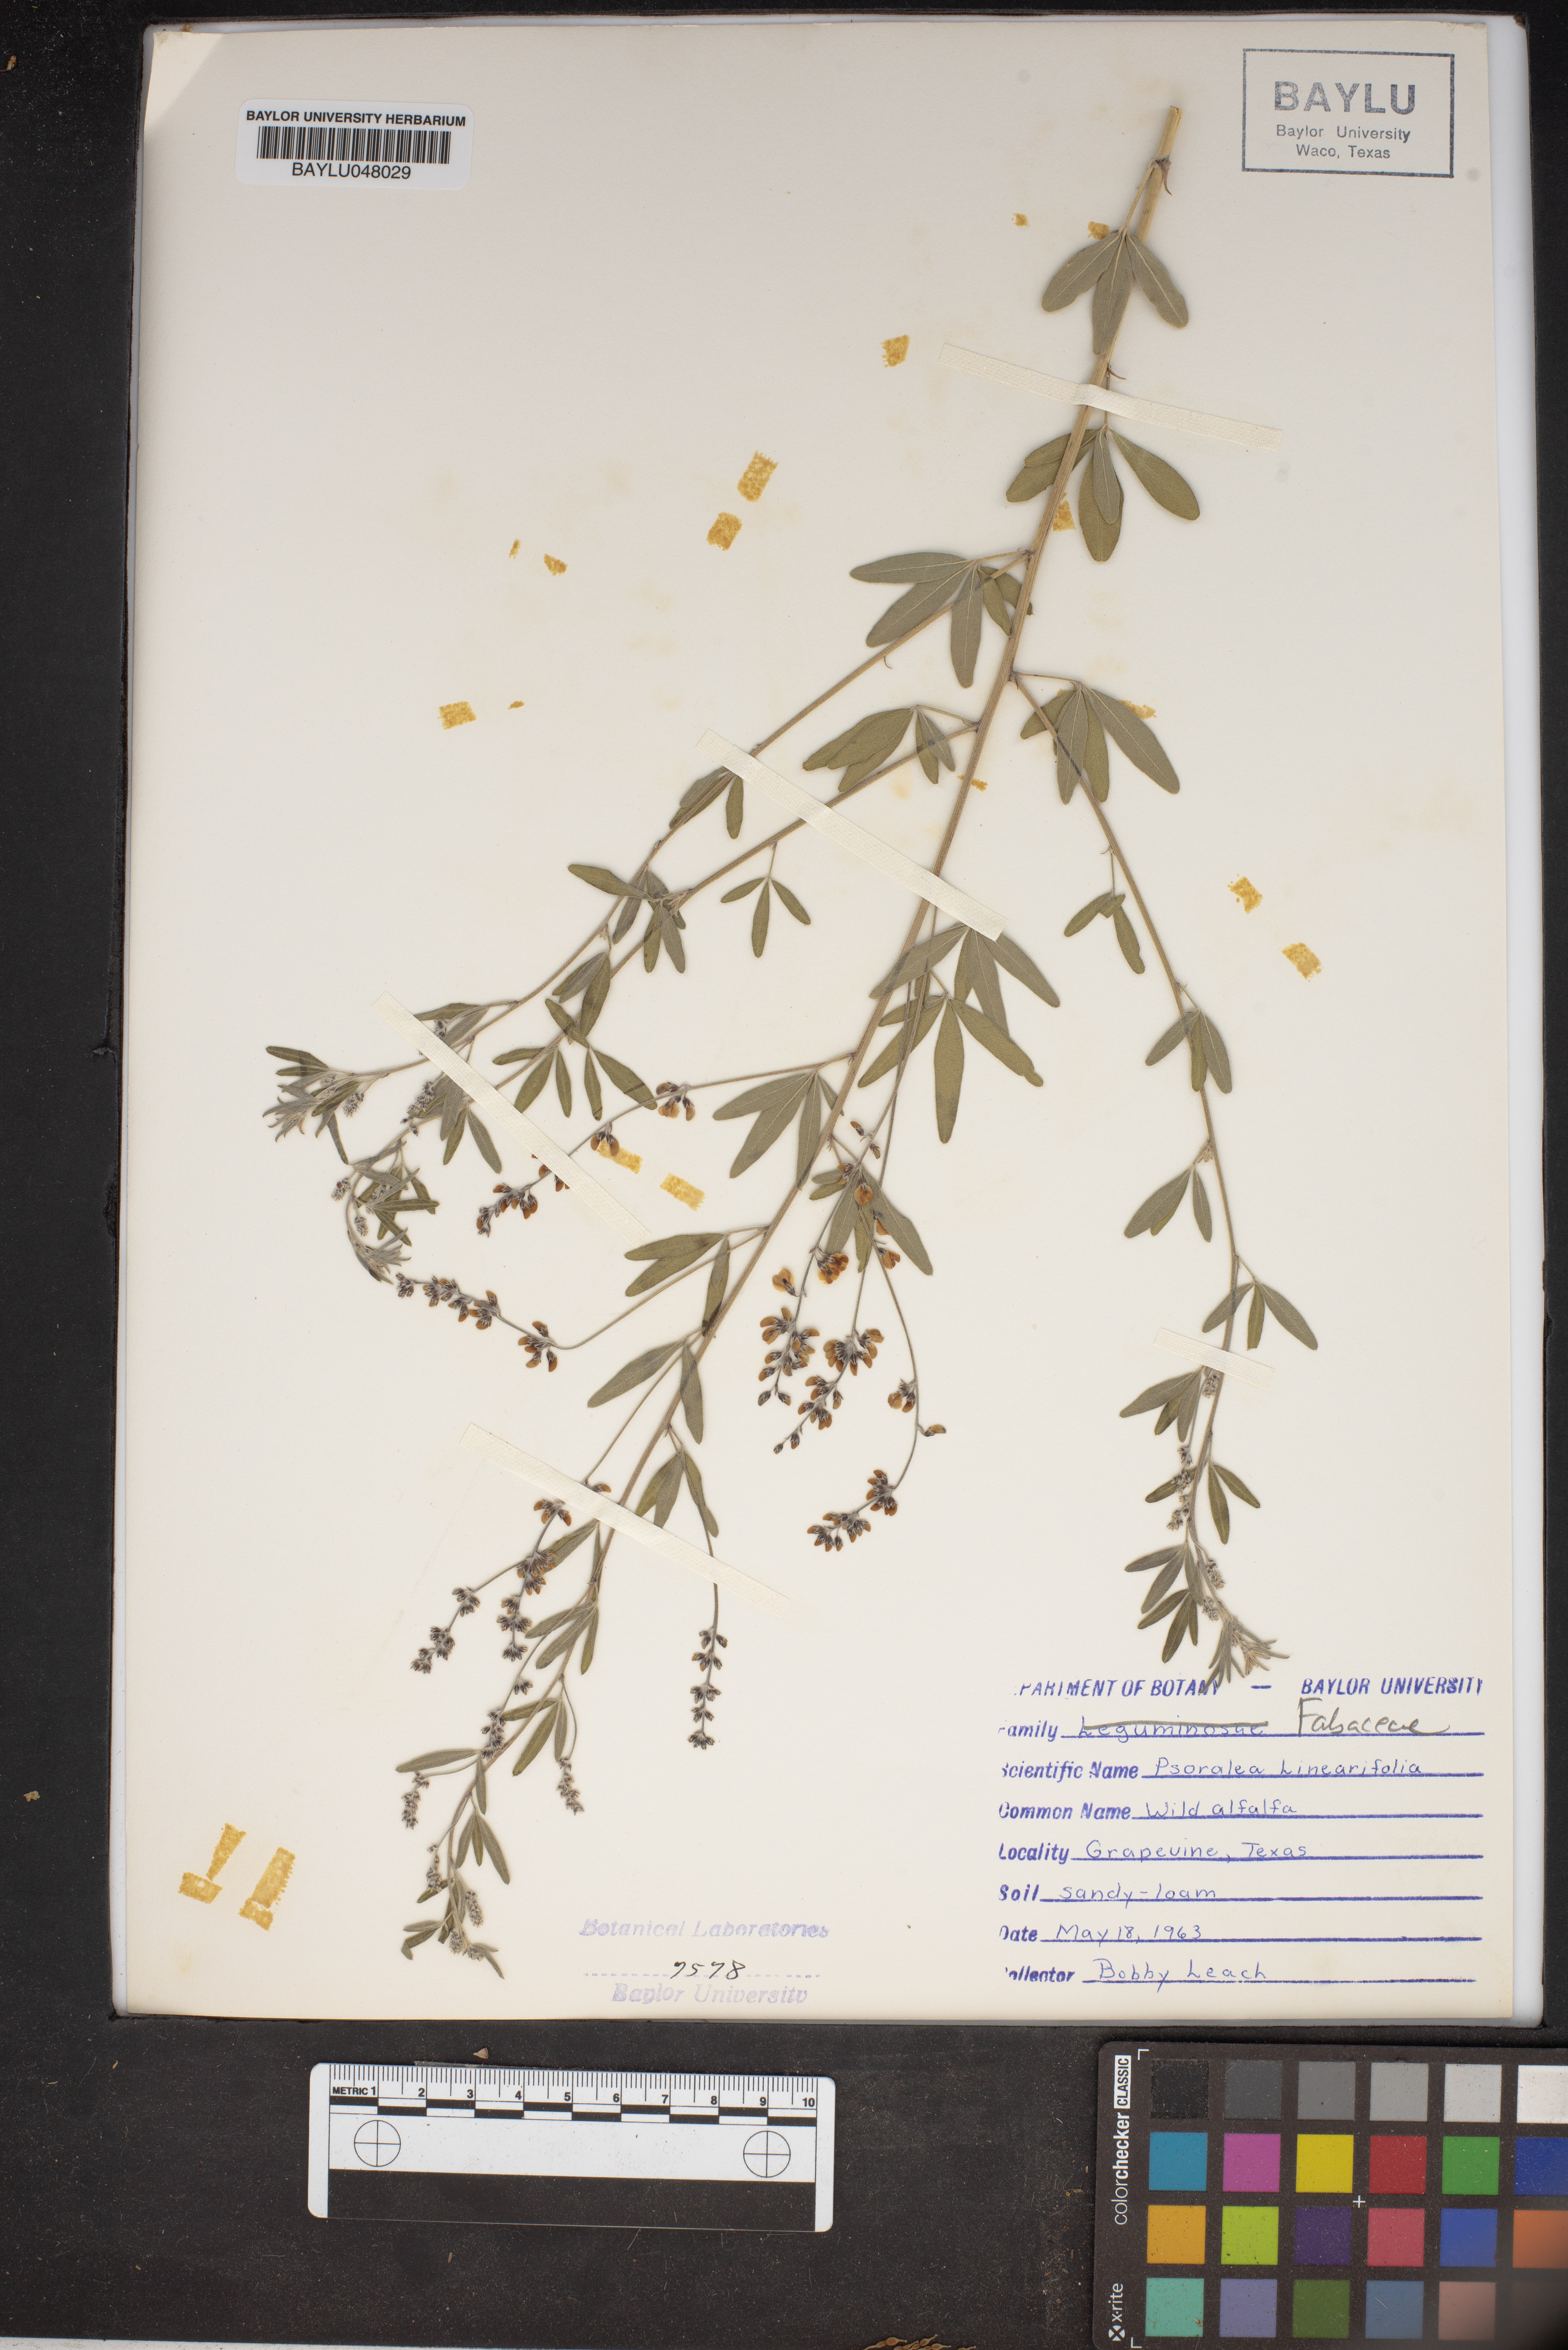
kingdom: Plantae
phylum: Tracheophyta
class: Magnoliopsida
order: Fabales
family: Fabaceae
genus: Pediomelum
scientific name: Pediomelum linearifolium
